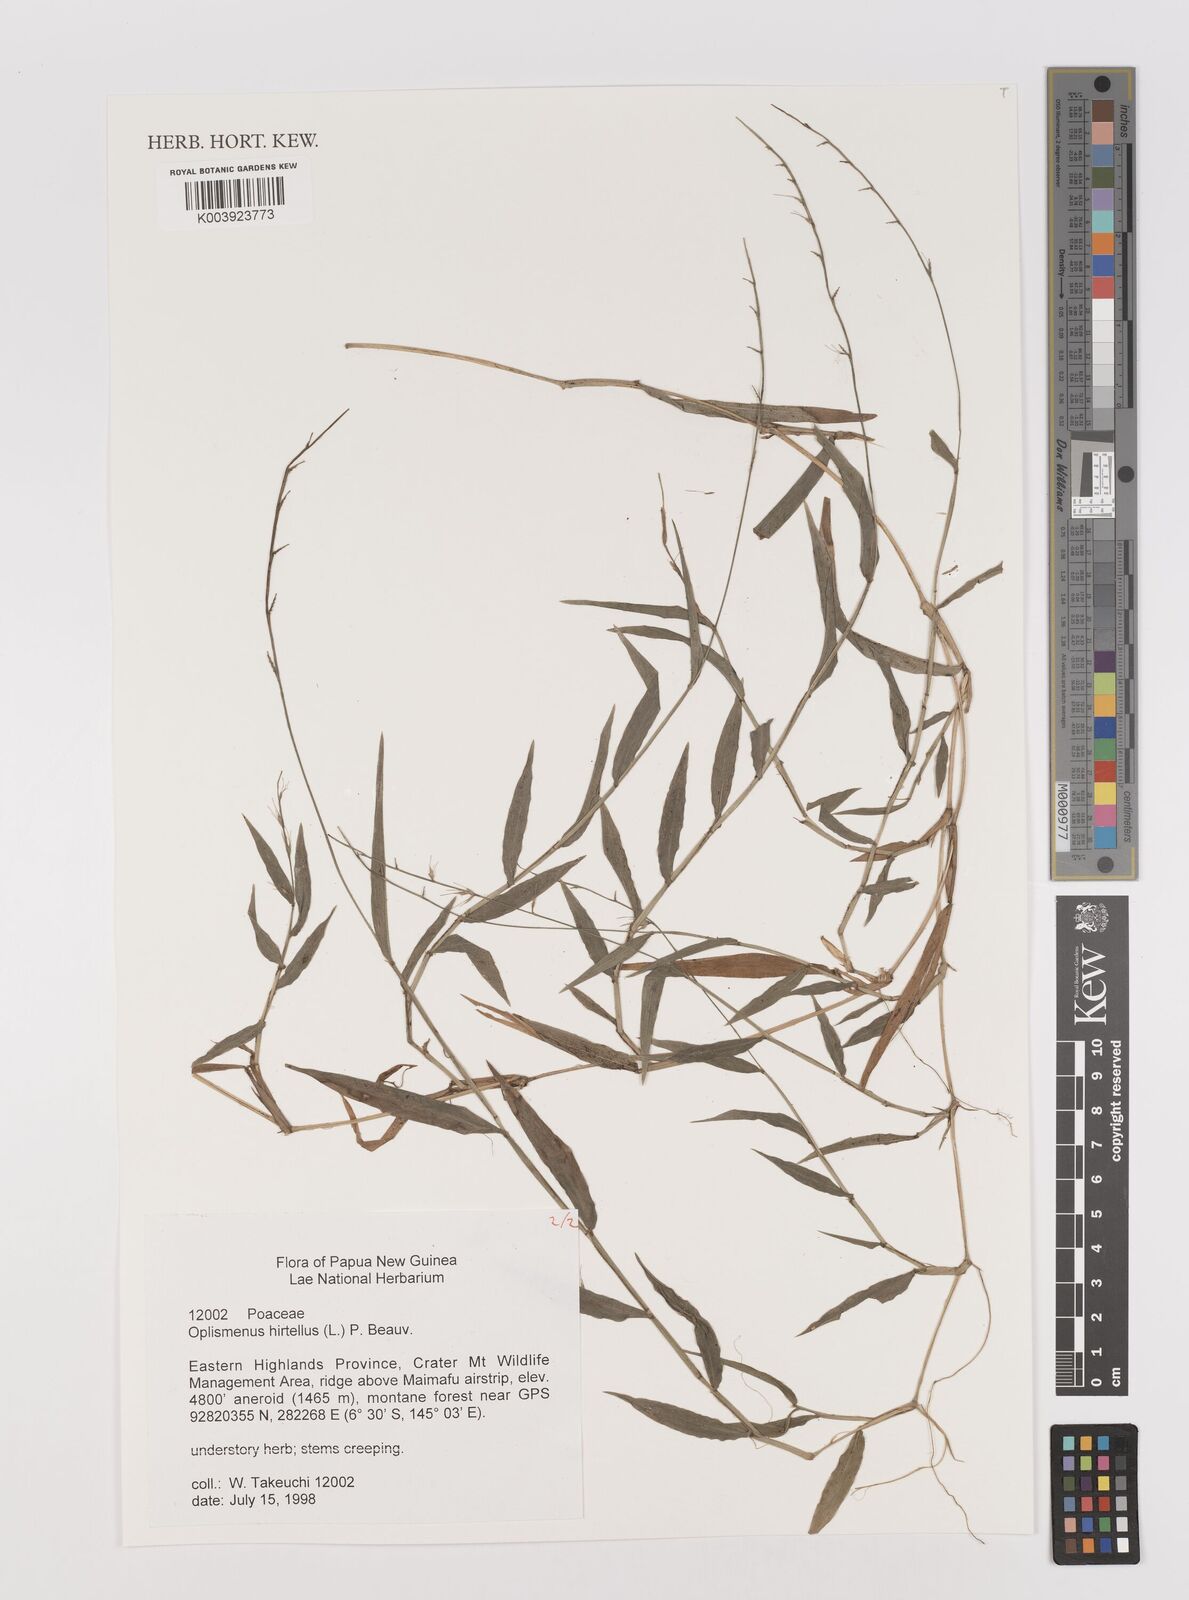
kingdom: Plantae
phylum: Tracheophyta
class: Liliopsida
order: Poales
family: Poaceae
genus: Oplismenus
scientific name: Oplismenus hirtellus
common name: Basketgrass
